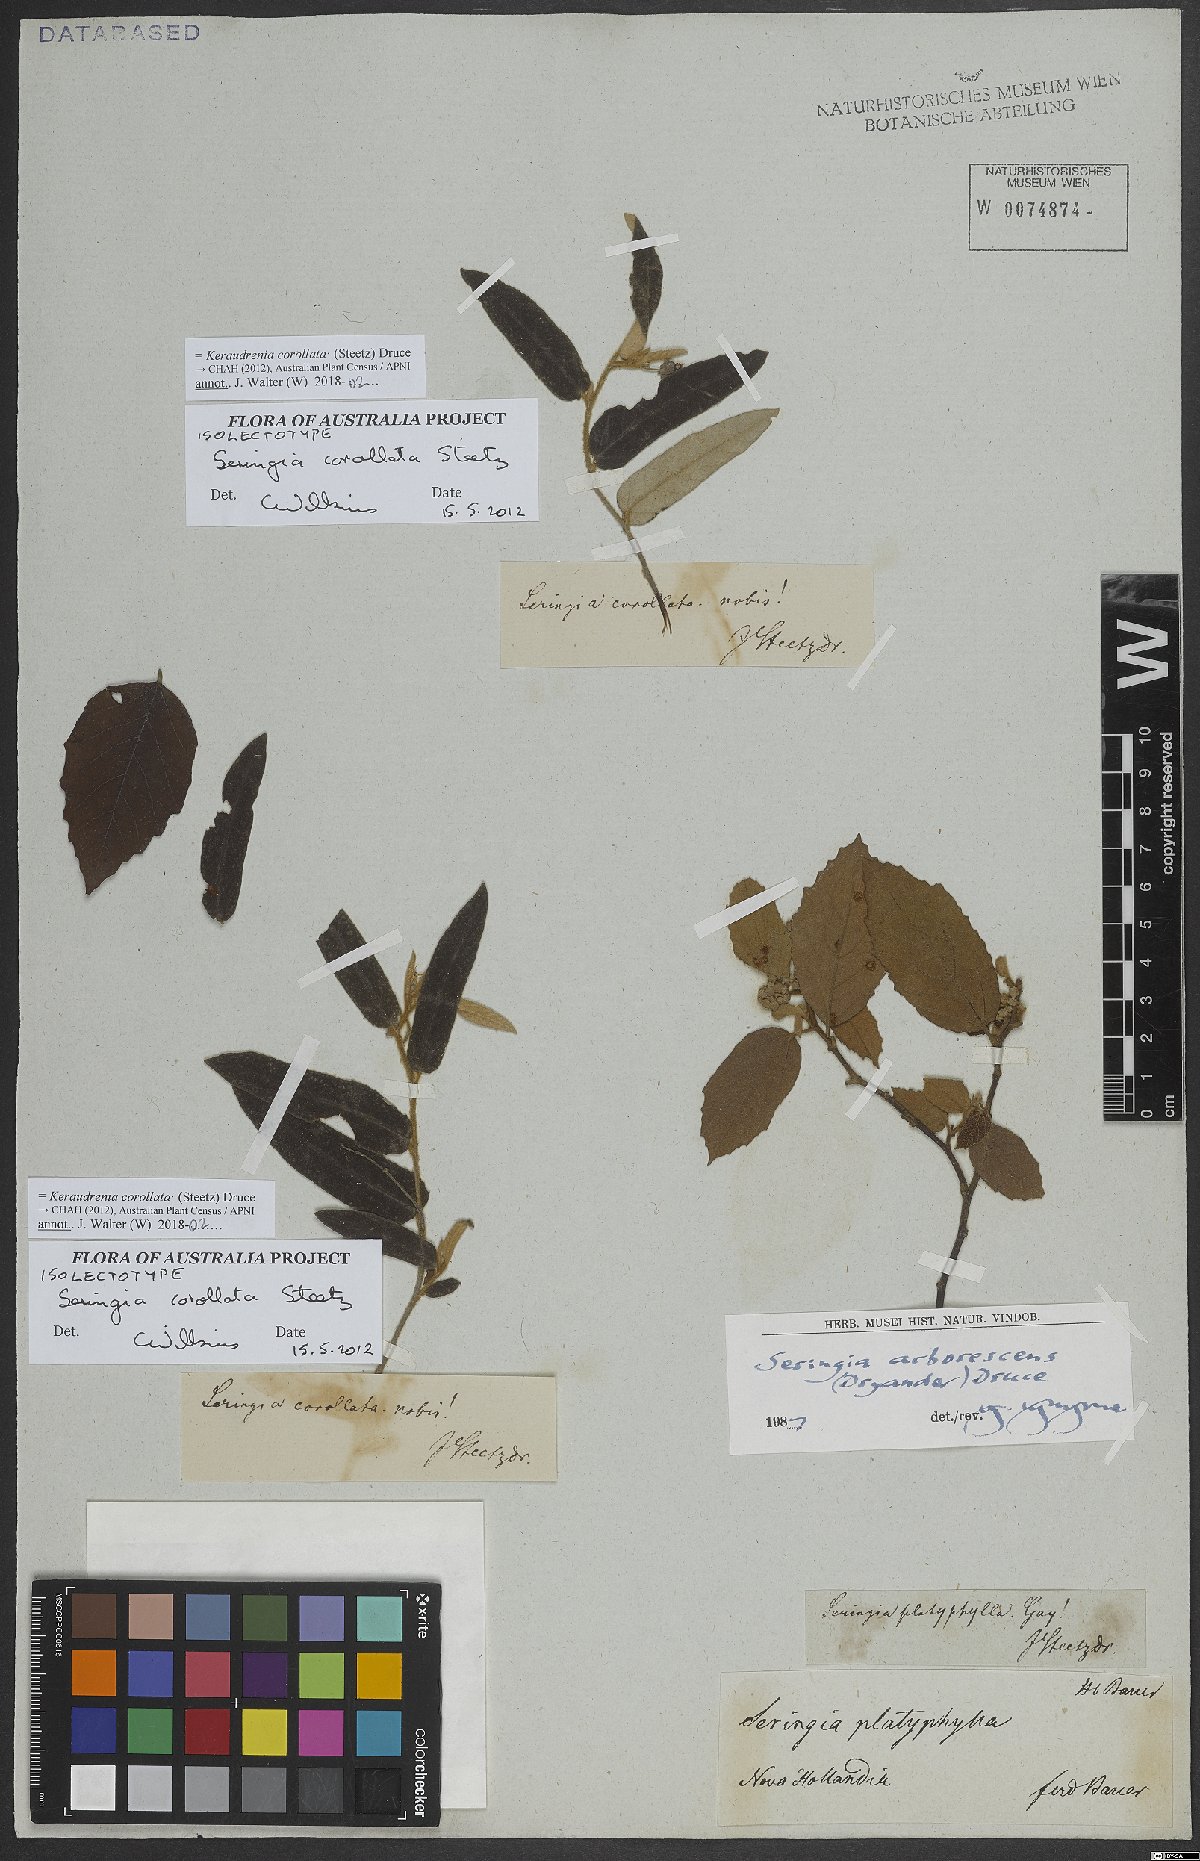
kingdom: Plantae
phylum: Tracheophyta
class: Magnoliopsida
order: Malvales
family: Malvaceae
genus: Seringia
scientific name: Seringia corollata
